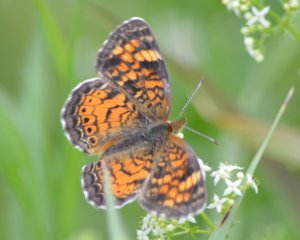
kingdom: Animalia
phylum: Arthropoda
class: Insecta
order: Lepidoptera
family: Nymphalidae
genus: Chlosyne
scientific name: Chlosyne harrisii
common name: Harris's Checkerspot
